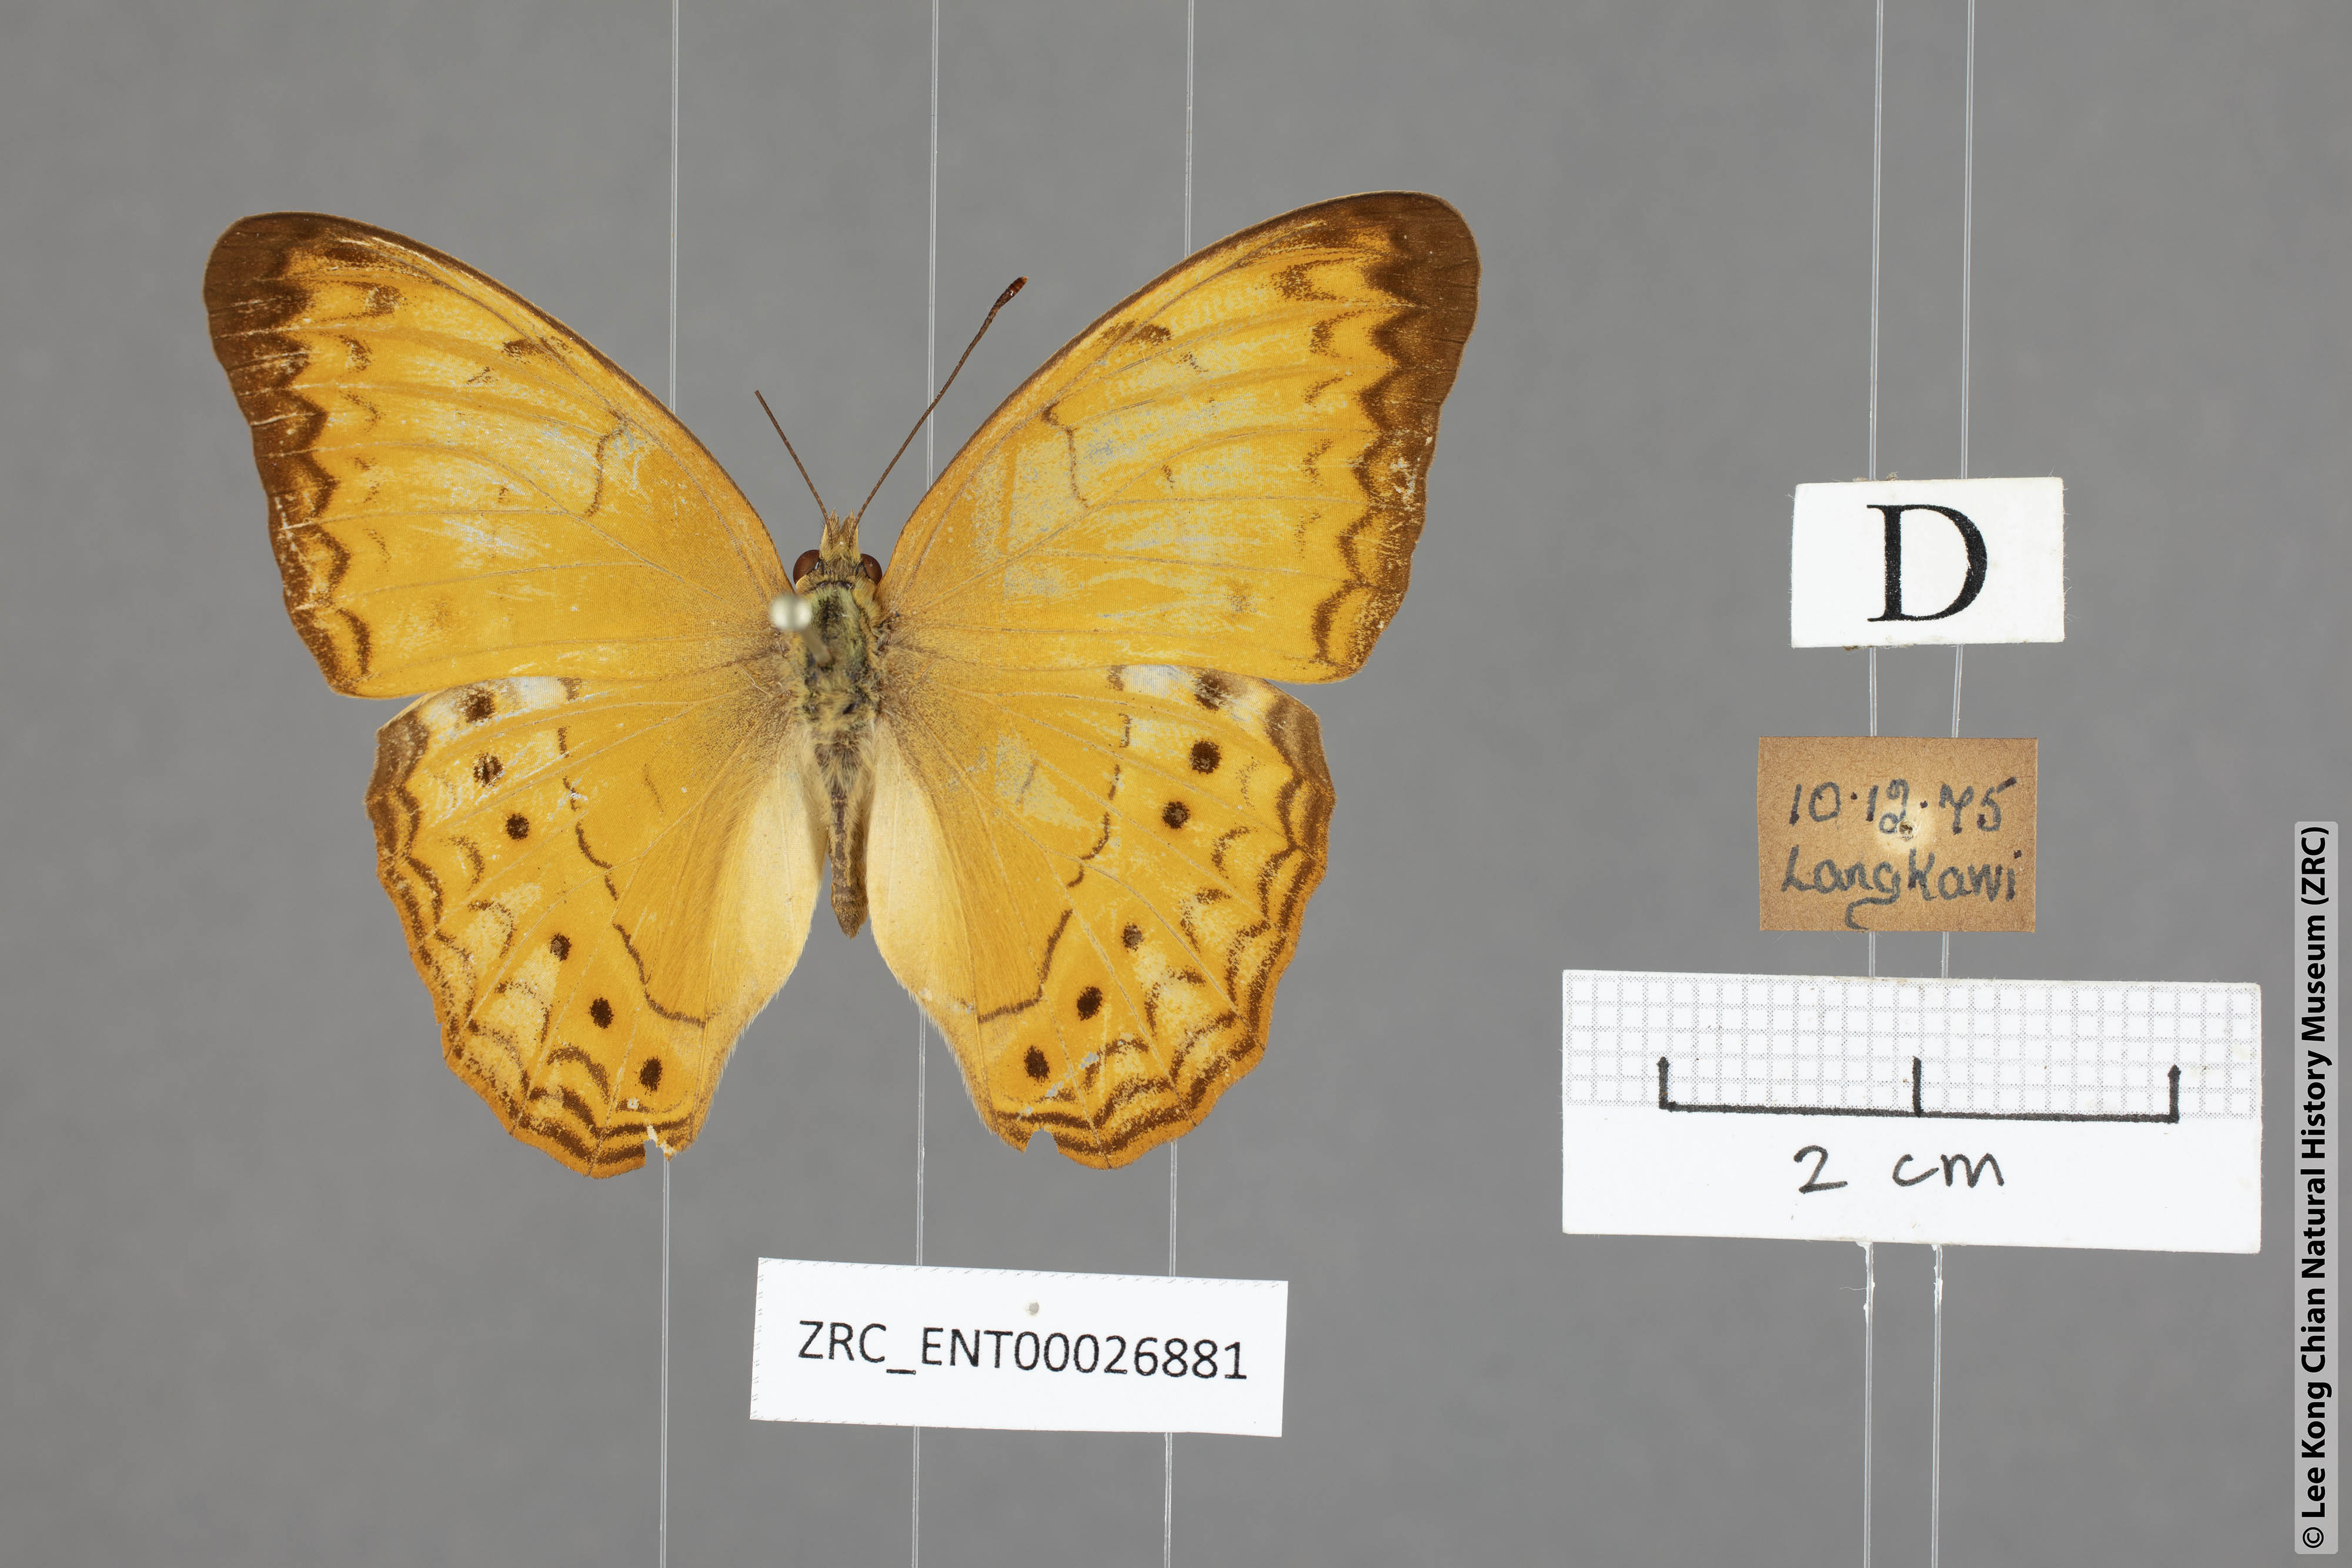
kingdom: Animalia
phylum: Arthropoda
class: Insecta
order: Lepidoptera
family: Nymphalidae
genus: Cirrochroa
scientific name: Cirrochroa surya
